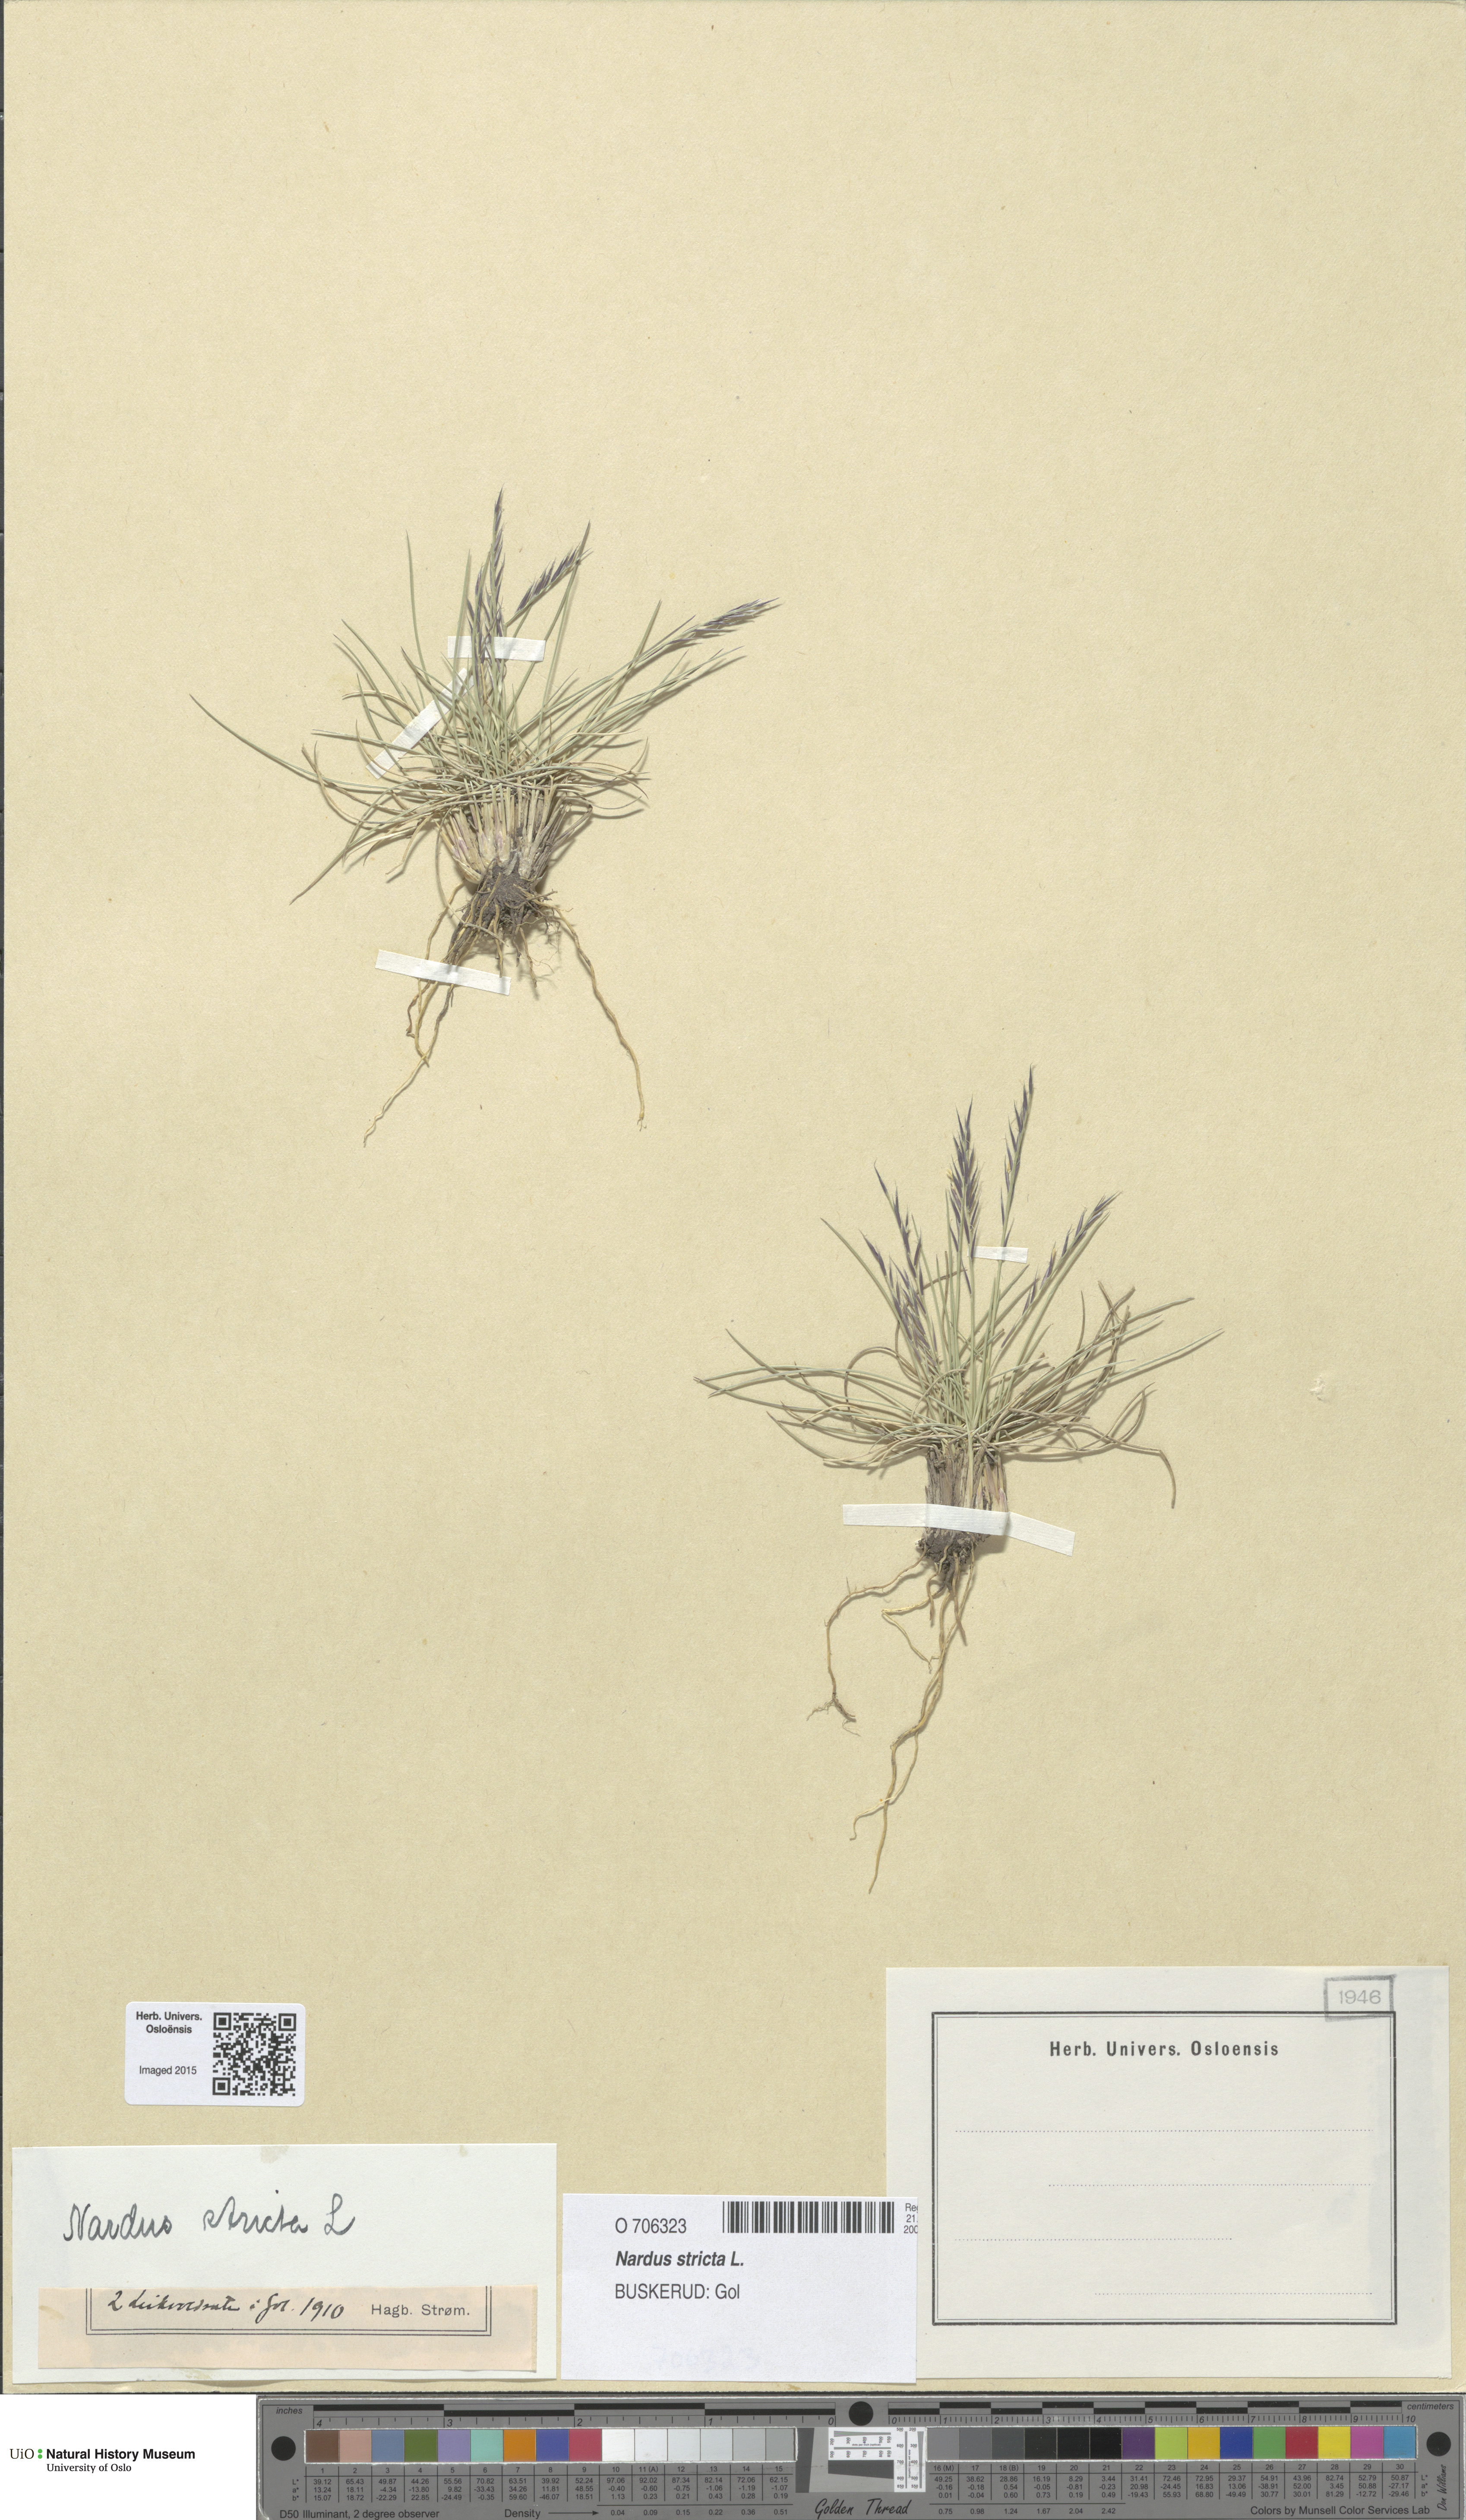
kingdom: Plantae
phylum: Tracheophyta
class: Liliopsida
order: Poales
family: Poaceae
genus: Nardus
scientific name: Nardus stricta
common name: Mat-grass
